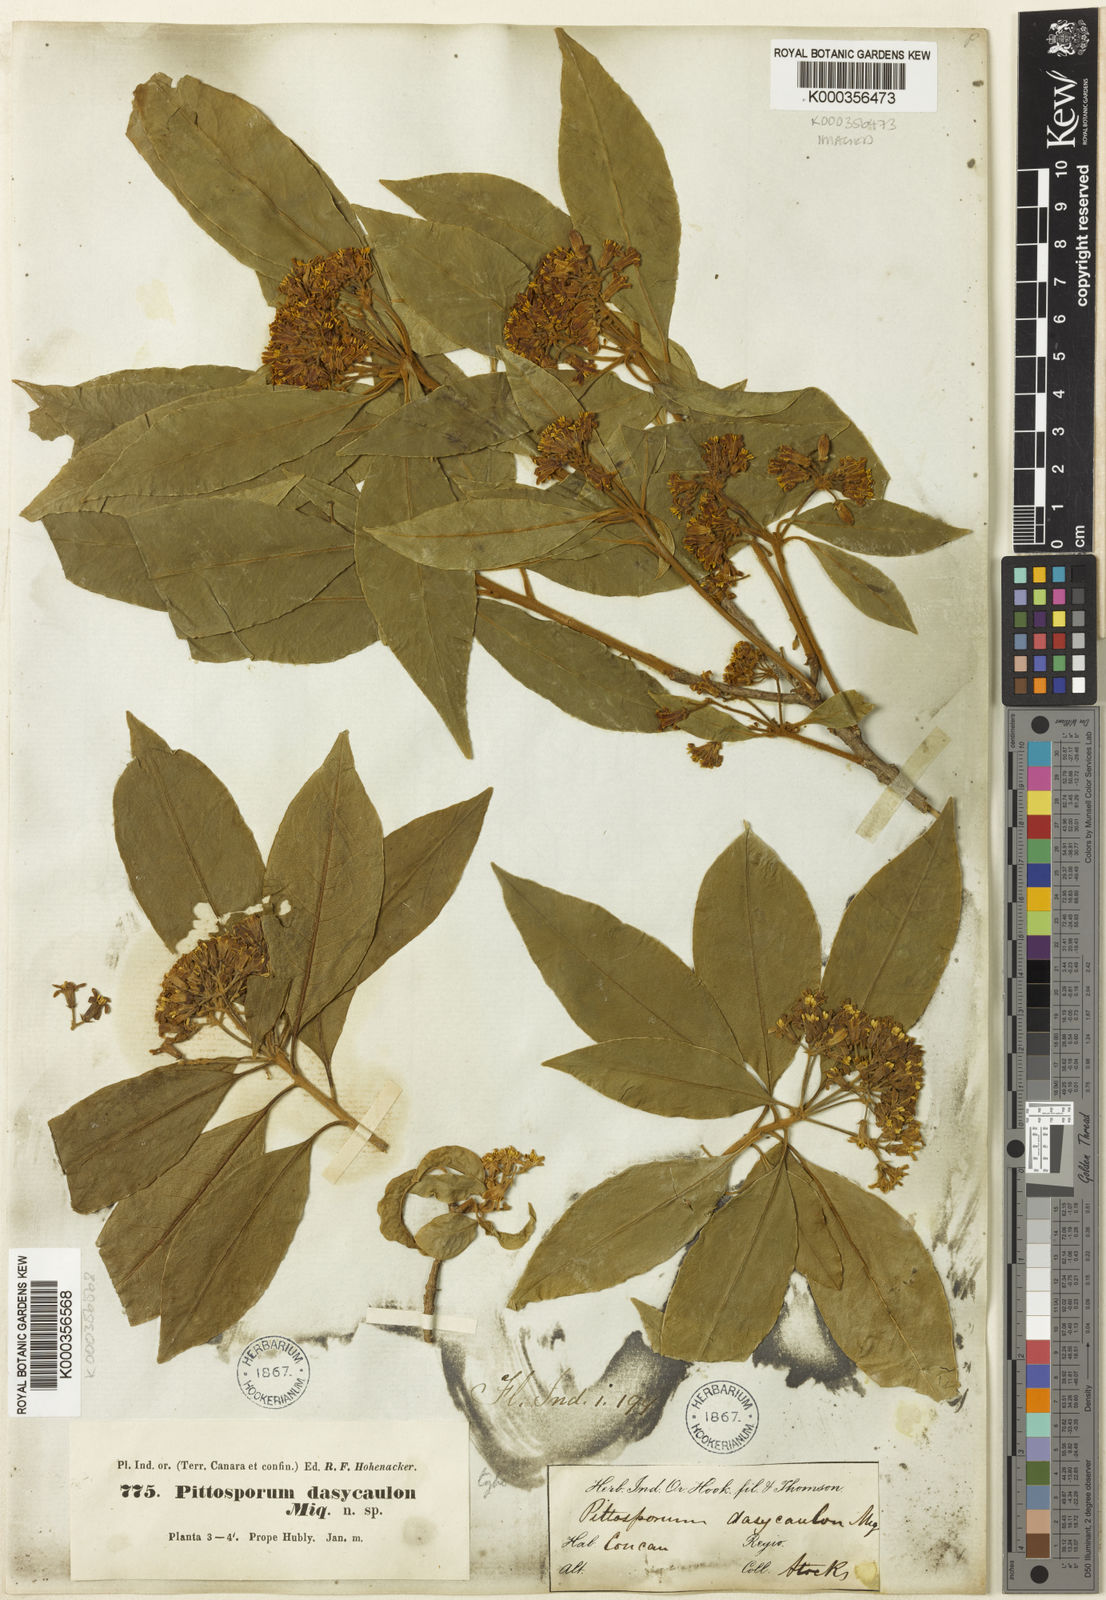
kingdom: Plantae
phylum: Tracheophyta
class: Magnoliopsida
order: Apiales
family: Pittosporaceae
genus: Pittosporum
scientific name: Pittosporum dasycaulon
